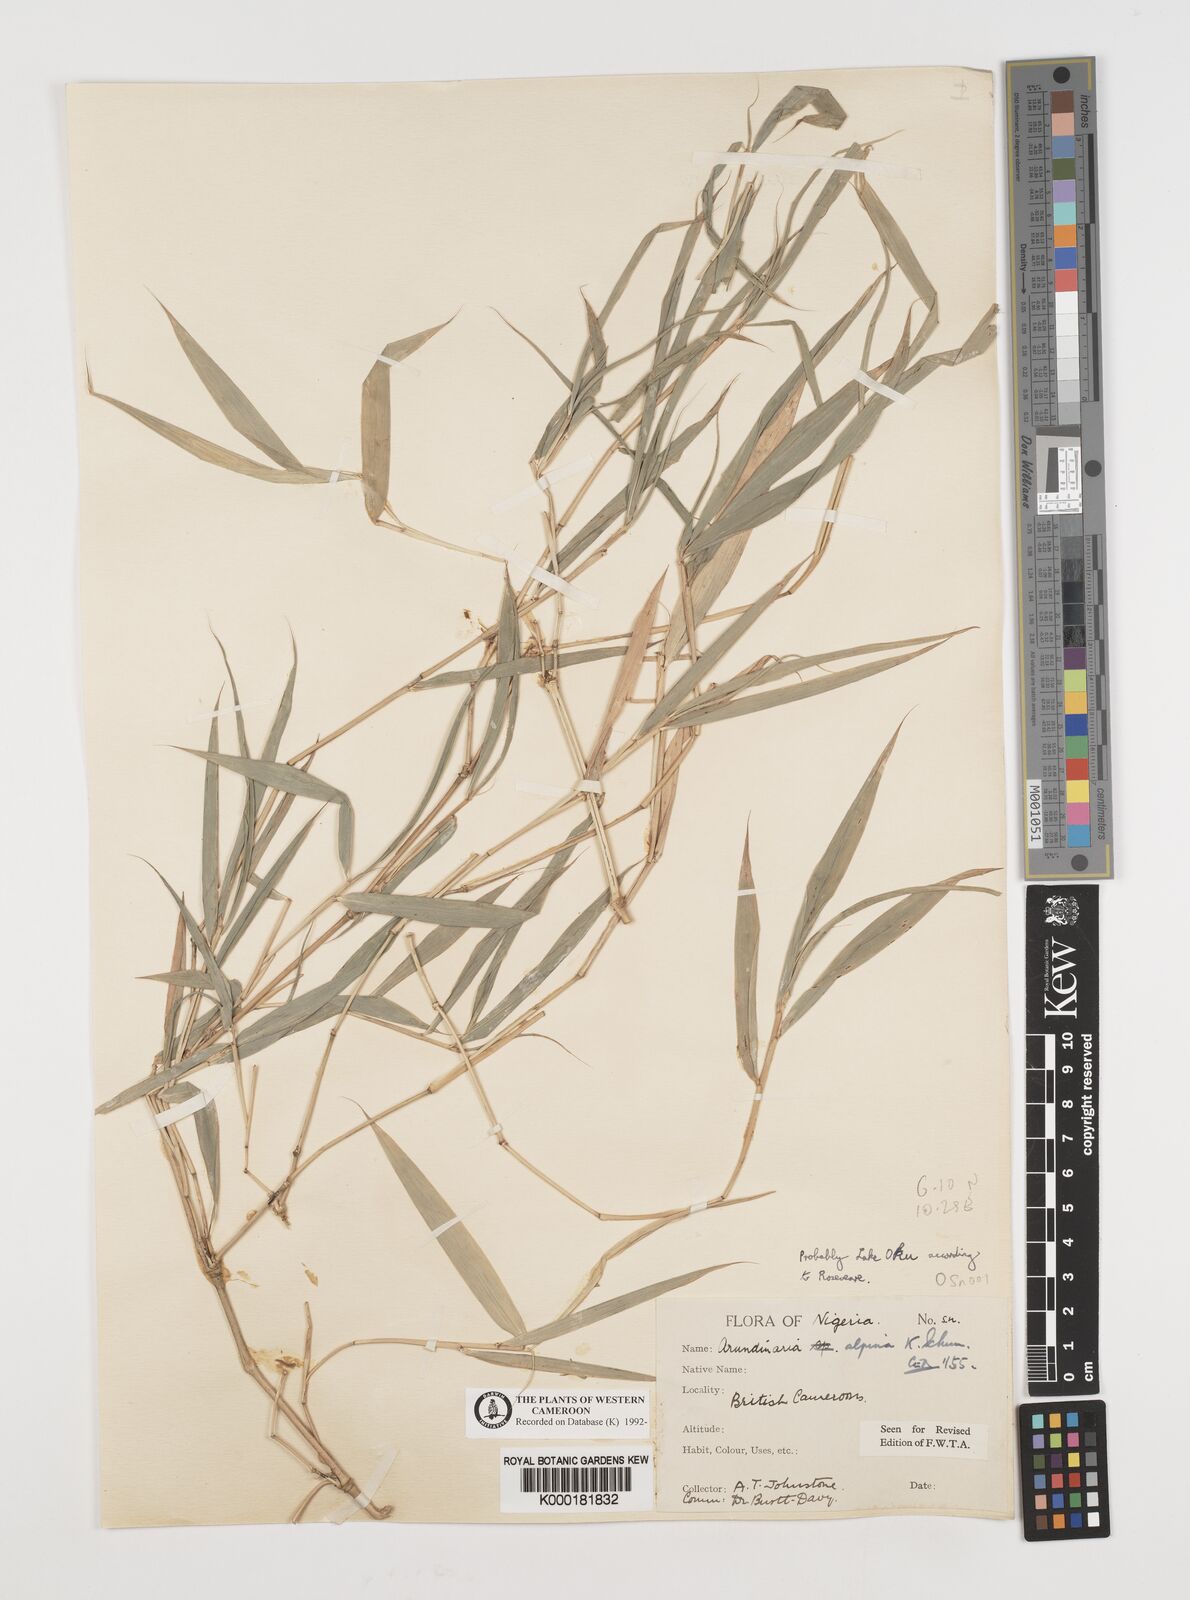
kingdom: Plantae
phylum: Tracheophyta
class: Liliopsida
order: Poales
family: Poaceae
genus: Fargesia
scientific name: Fargesia
